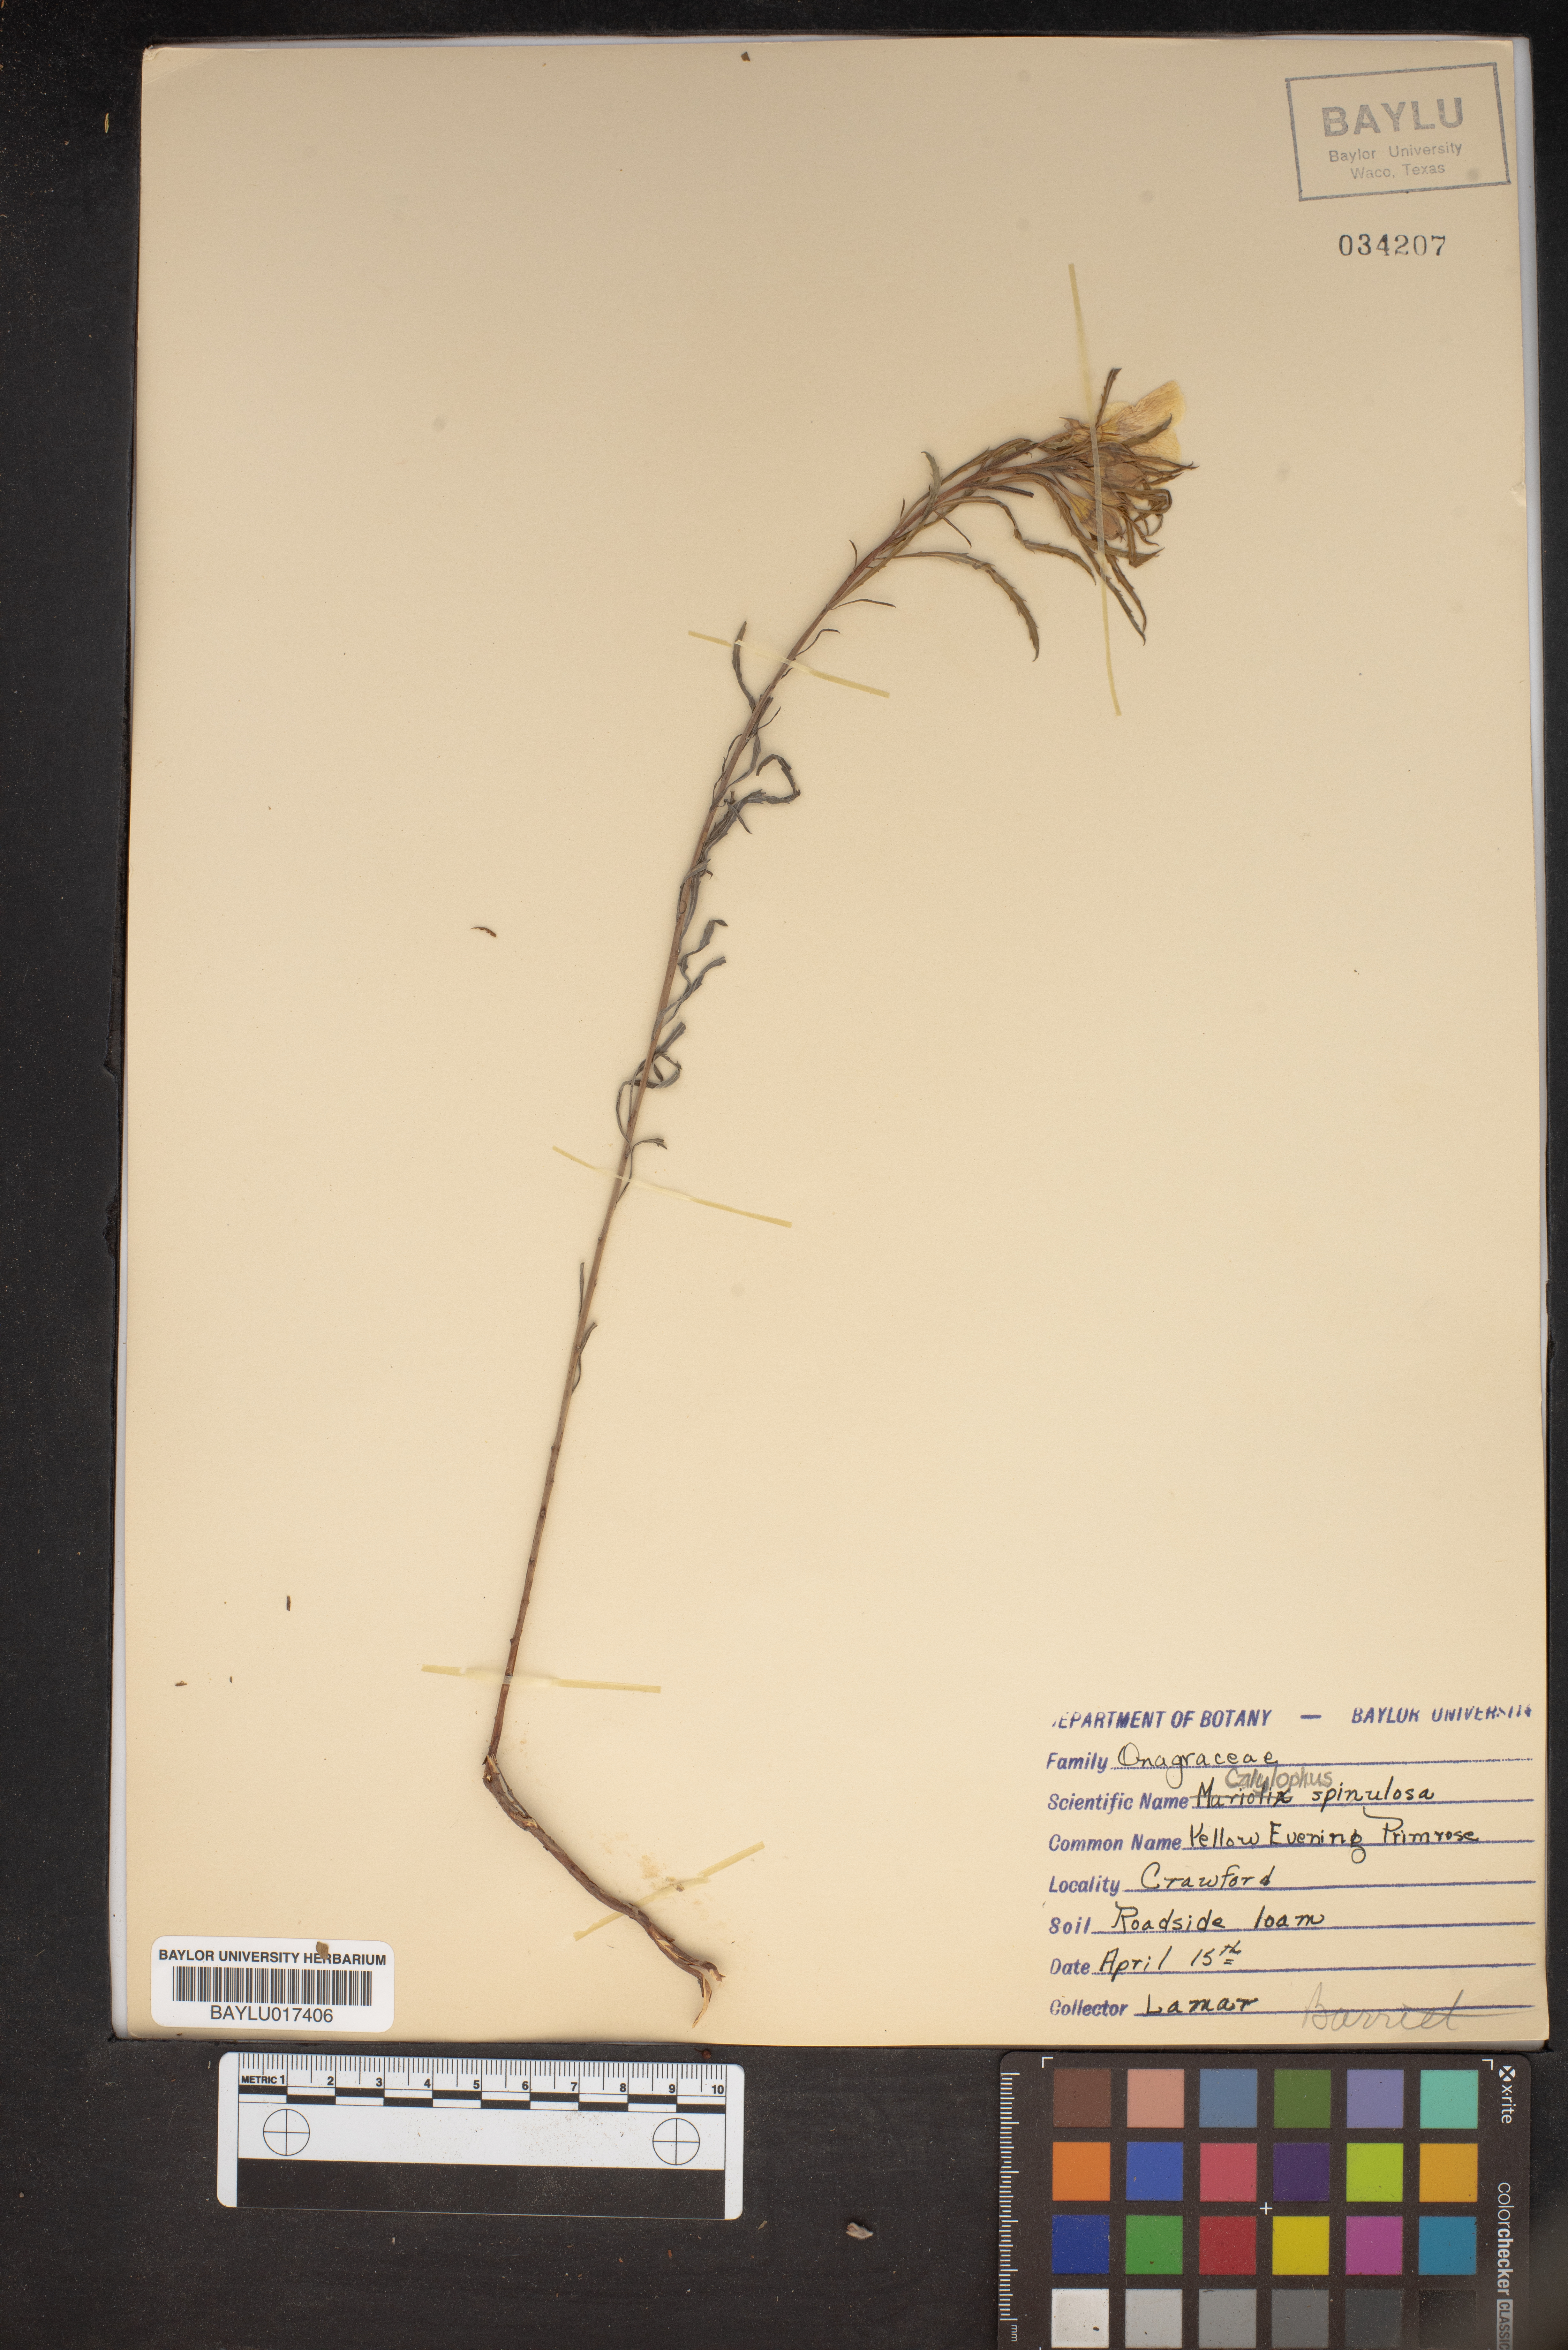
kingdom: Plantae
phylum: Tracheophyta
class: Magnoliopsida
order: Myrtales
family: Onagraceae
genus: Oenothera
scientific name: Oenothera
